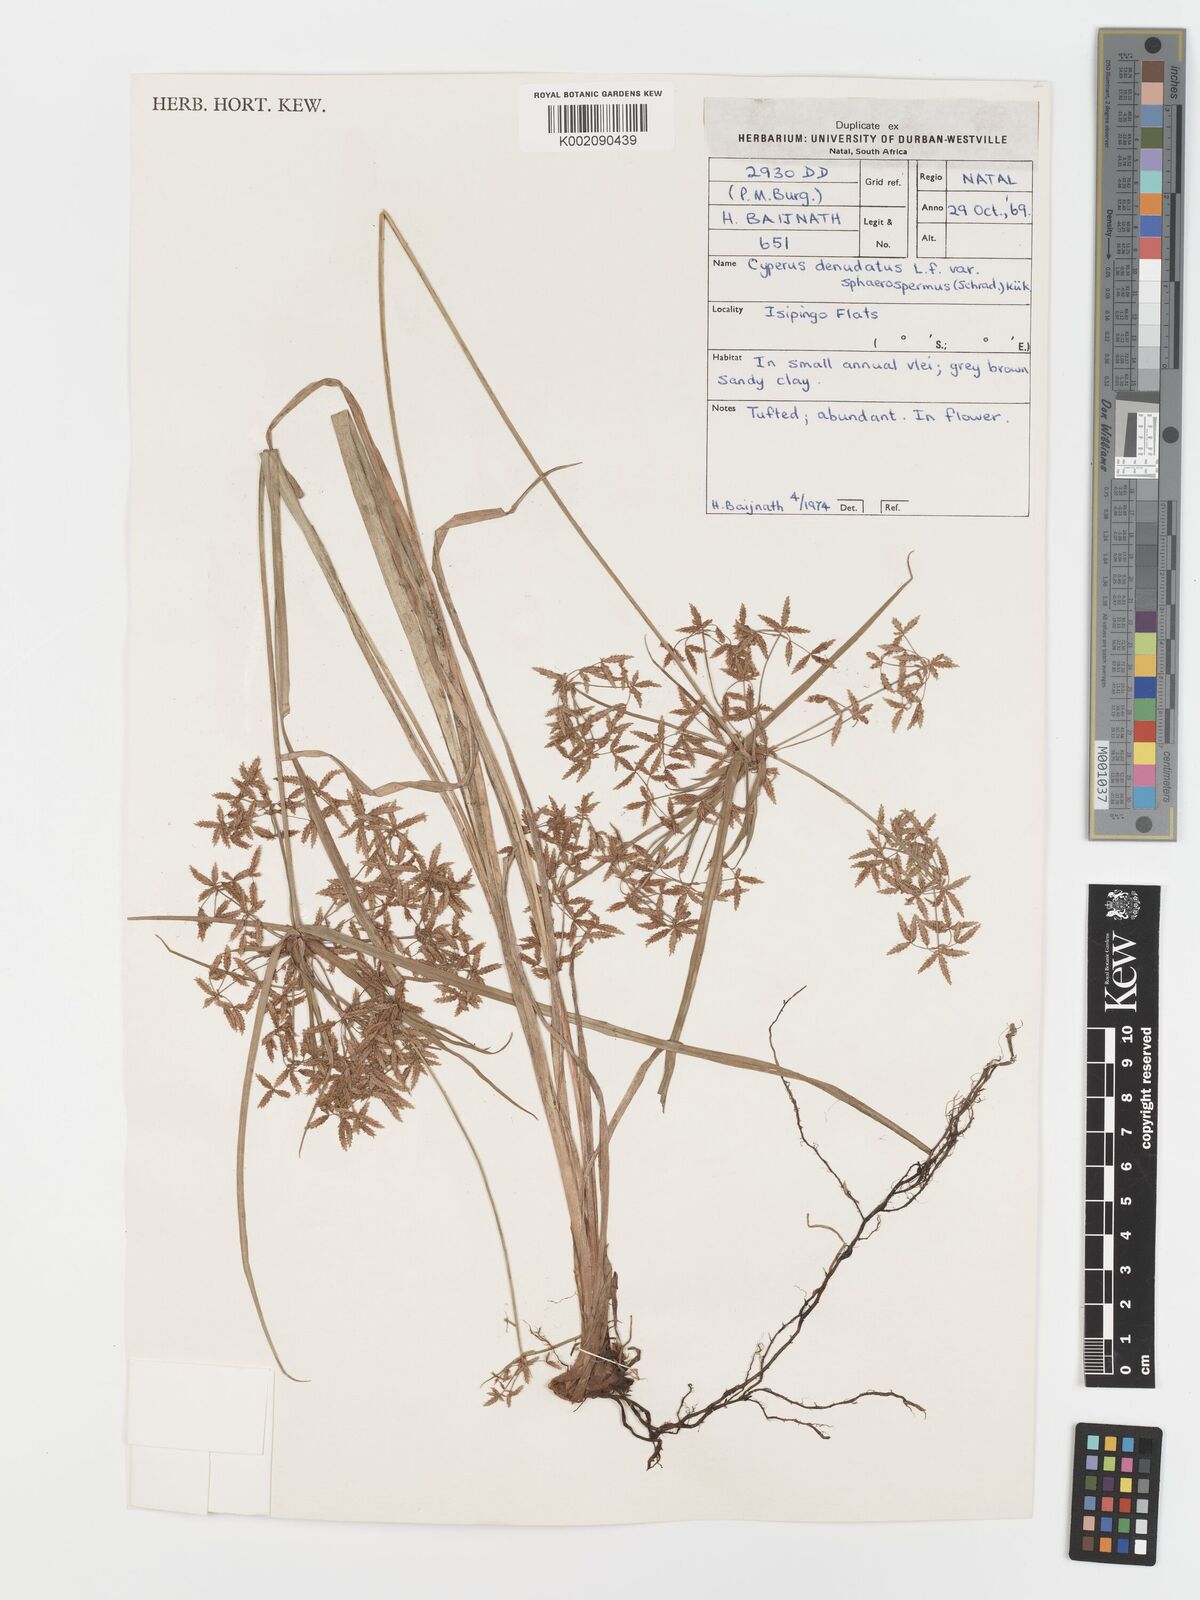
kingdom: Plantae
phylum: Tracheophyta
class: Liliopsida
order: Poales
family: Cyperaceae
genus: Cyperus
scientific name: Cyperus sphaerospermus
